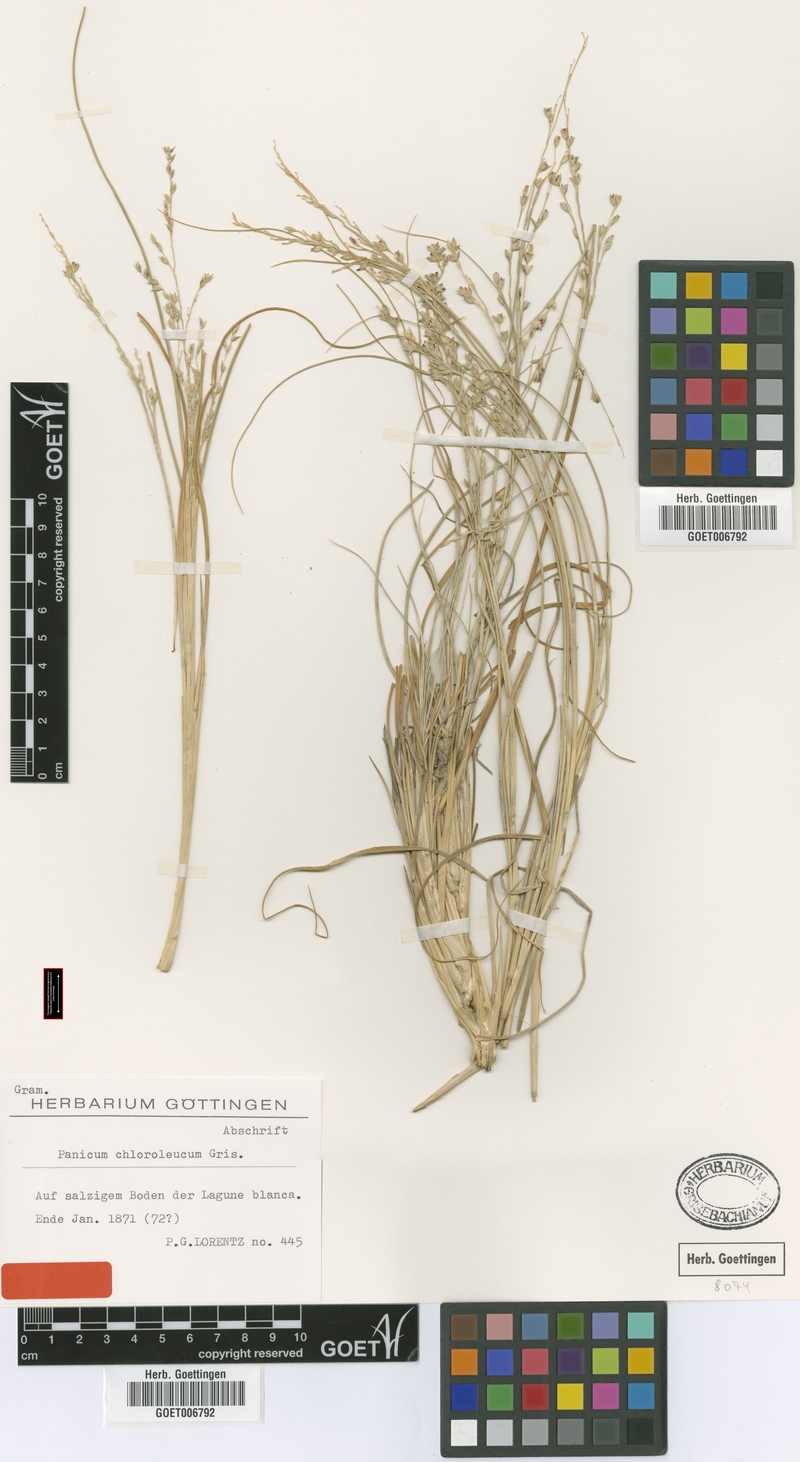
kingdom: Plantae
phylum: Tracheophyta
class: Liliopsida
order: Poales
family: Poaceae
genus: Panicum
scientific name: Panicum chloroleucum
